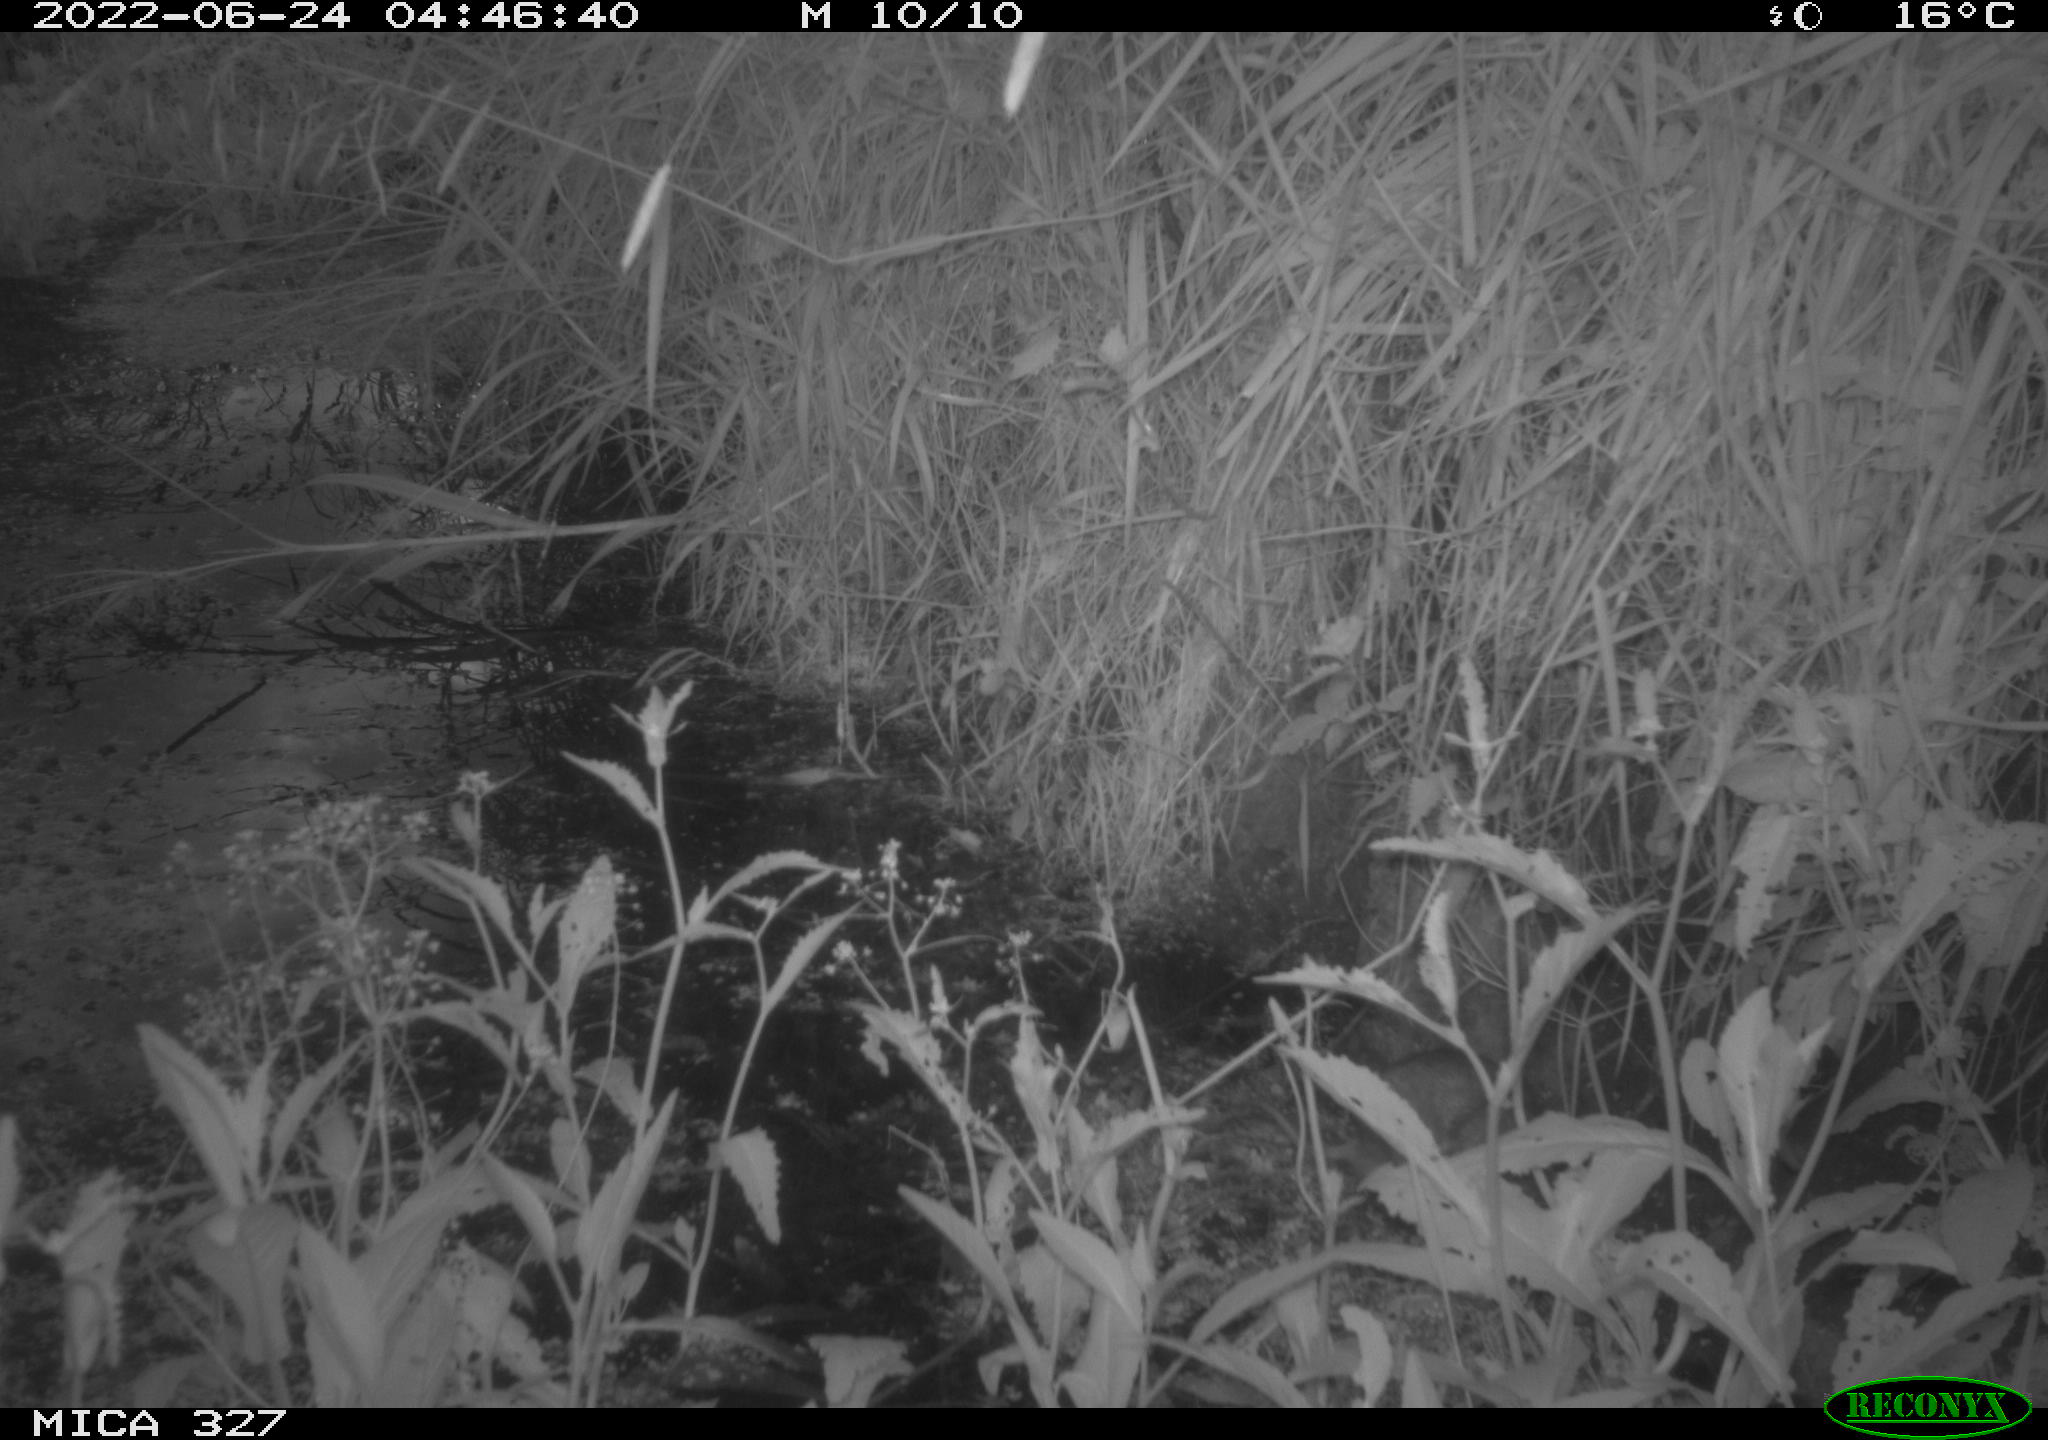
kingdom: Animalia
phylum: Chordata
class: Mammalia
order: Rodentia
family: Muridae
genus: Rattus
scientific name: Rattus norvegicus
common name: Brown rat
